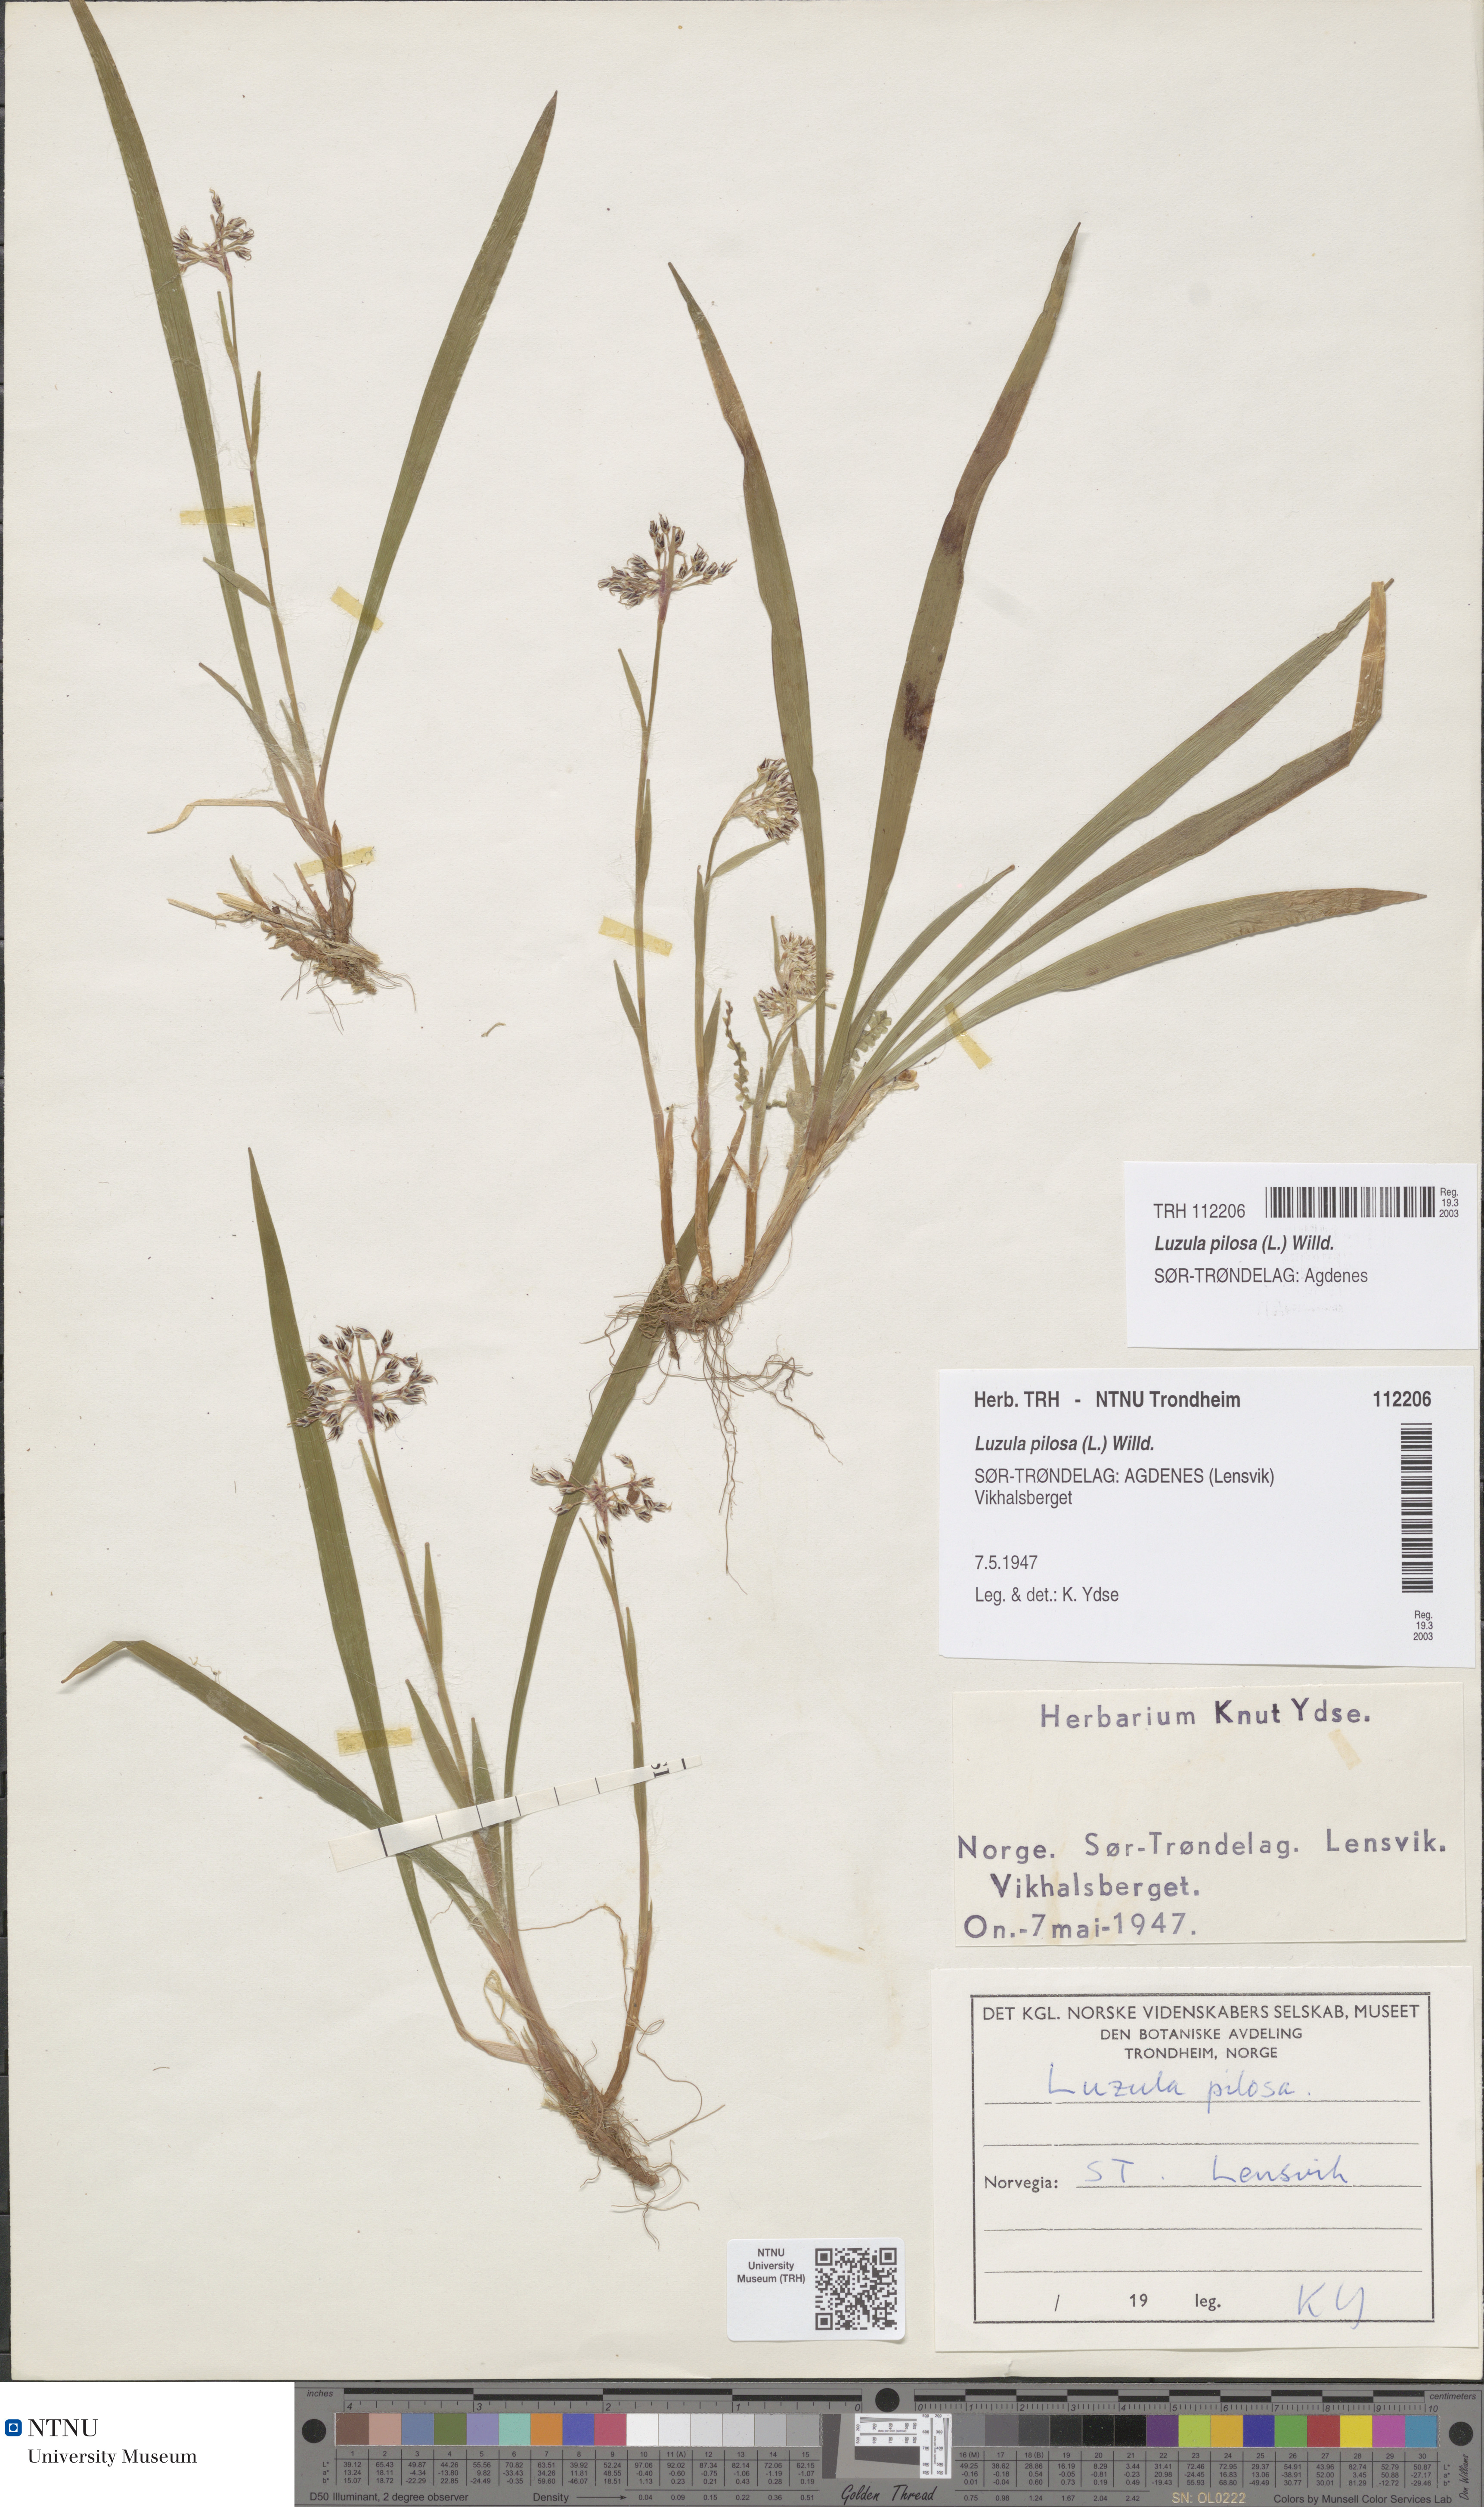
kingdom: Plantae
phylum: Tracheophyta
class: Liliopsida
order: Poales
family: Juncaceae
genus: Luzula
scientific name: Luzula pilosa
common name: Hairy wood-rush
